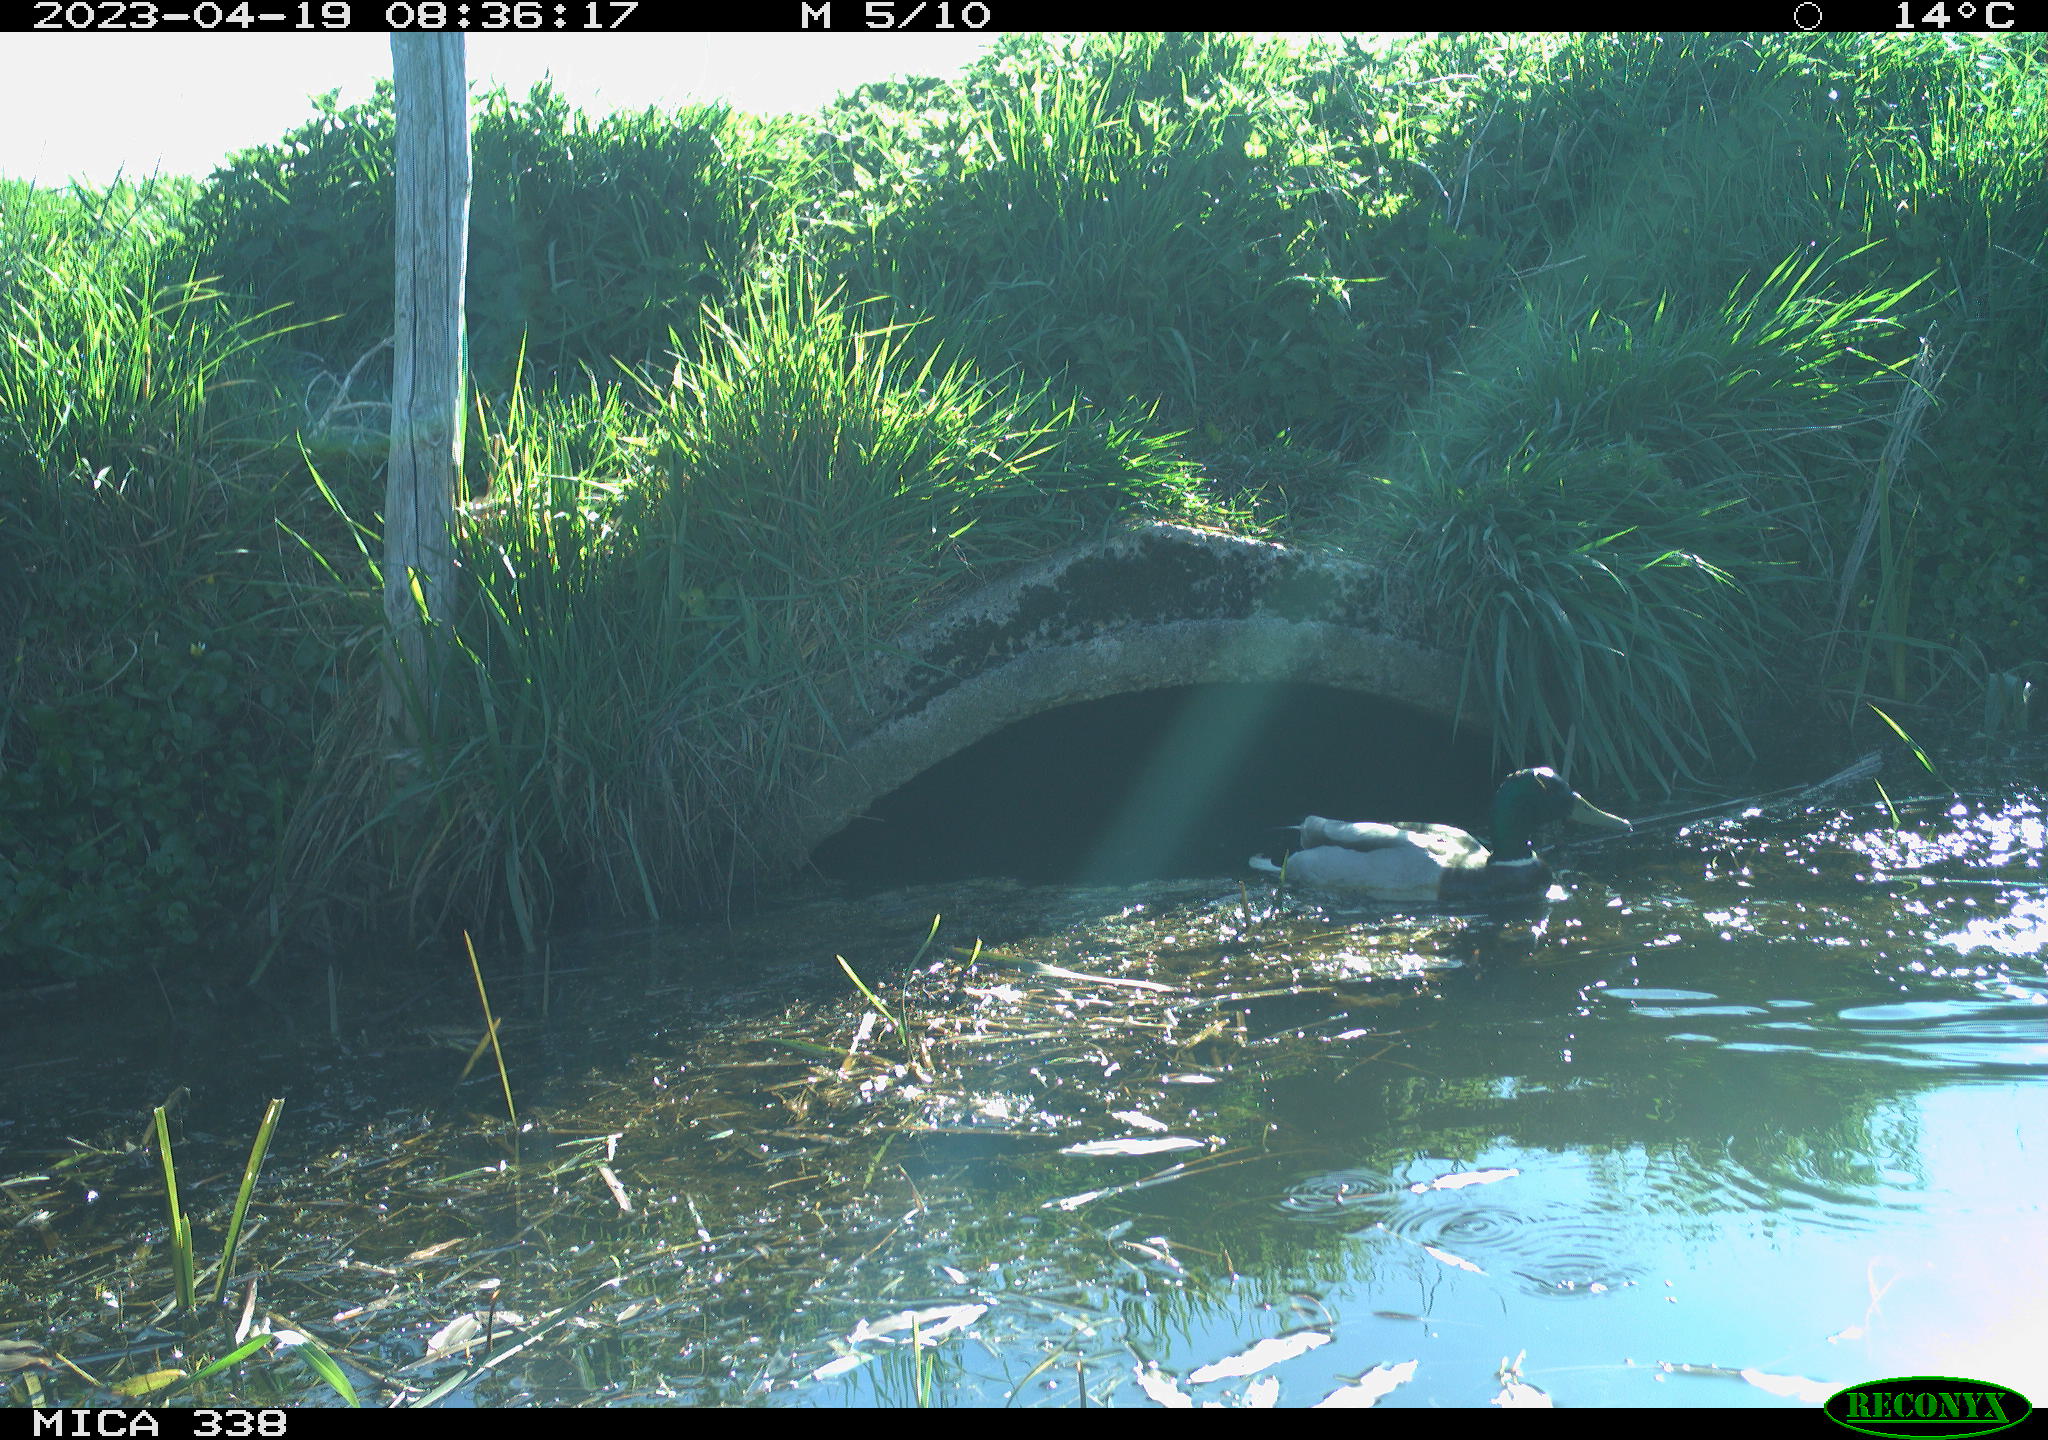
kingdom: Animalia
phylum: Chordata
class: Aves
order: Anseriformes
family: Anatidae
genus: Anas
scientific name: Anas
